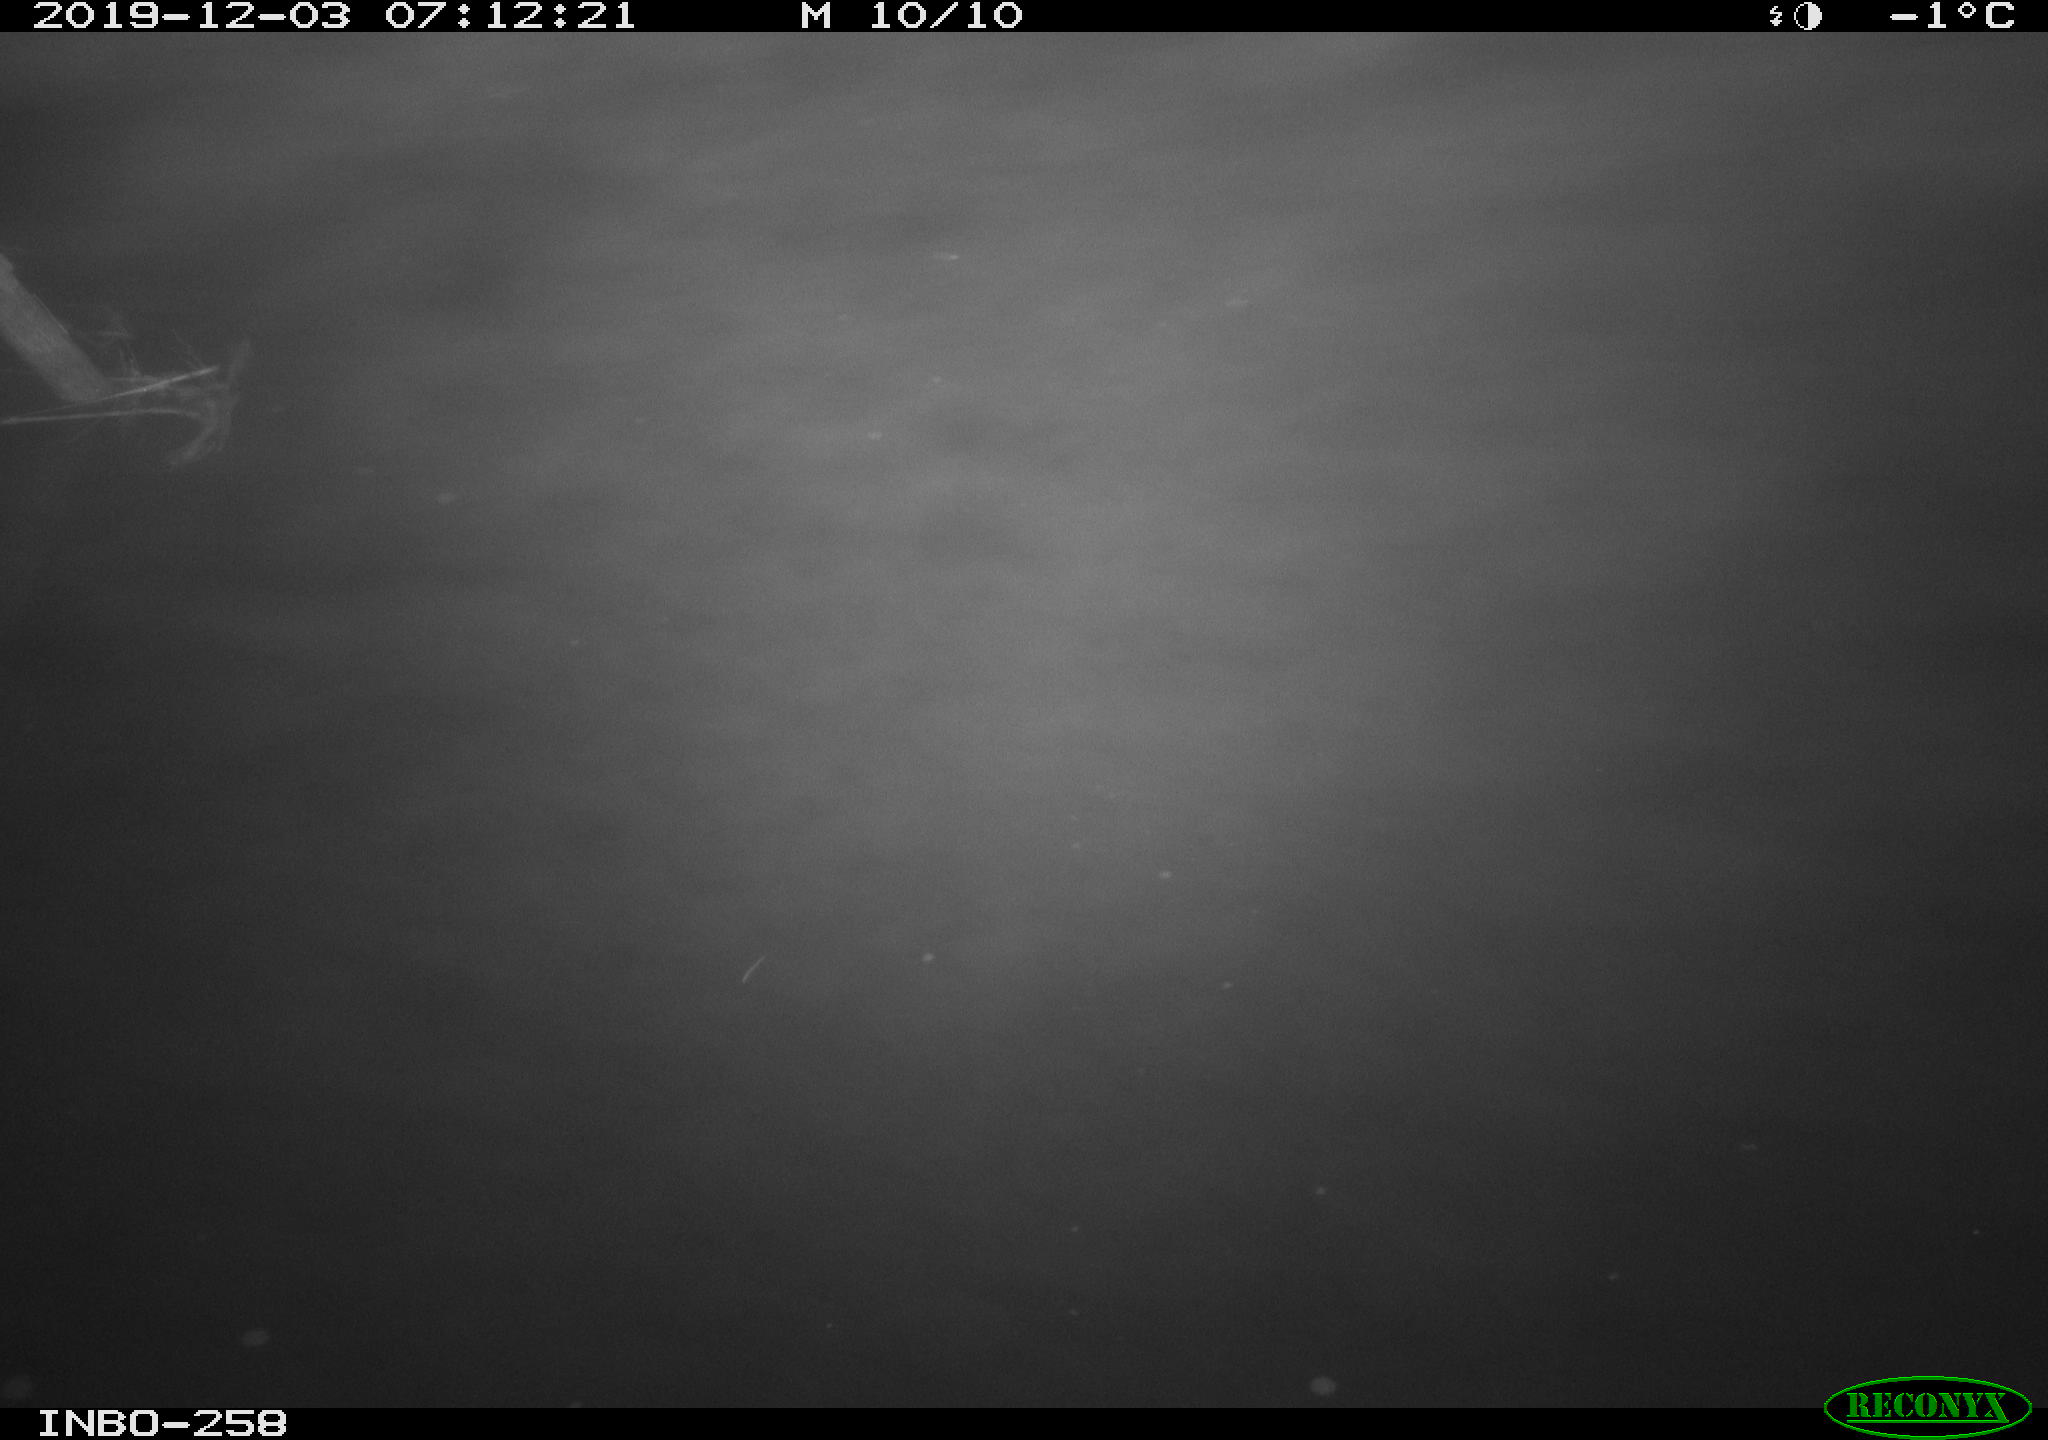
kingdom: Animalia
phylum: Chordata
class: Aves
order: Anseriformes
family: Anatidae
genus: Anas
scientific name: Anas platyrhynchos
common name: Mallard
